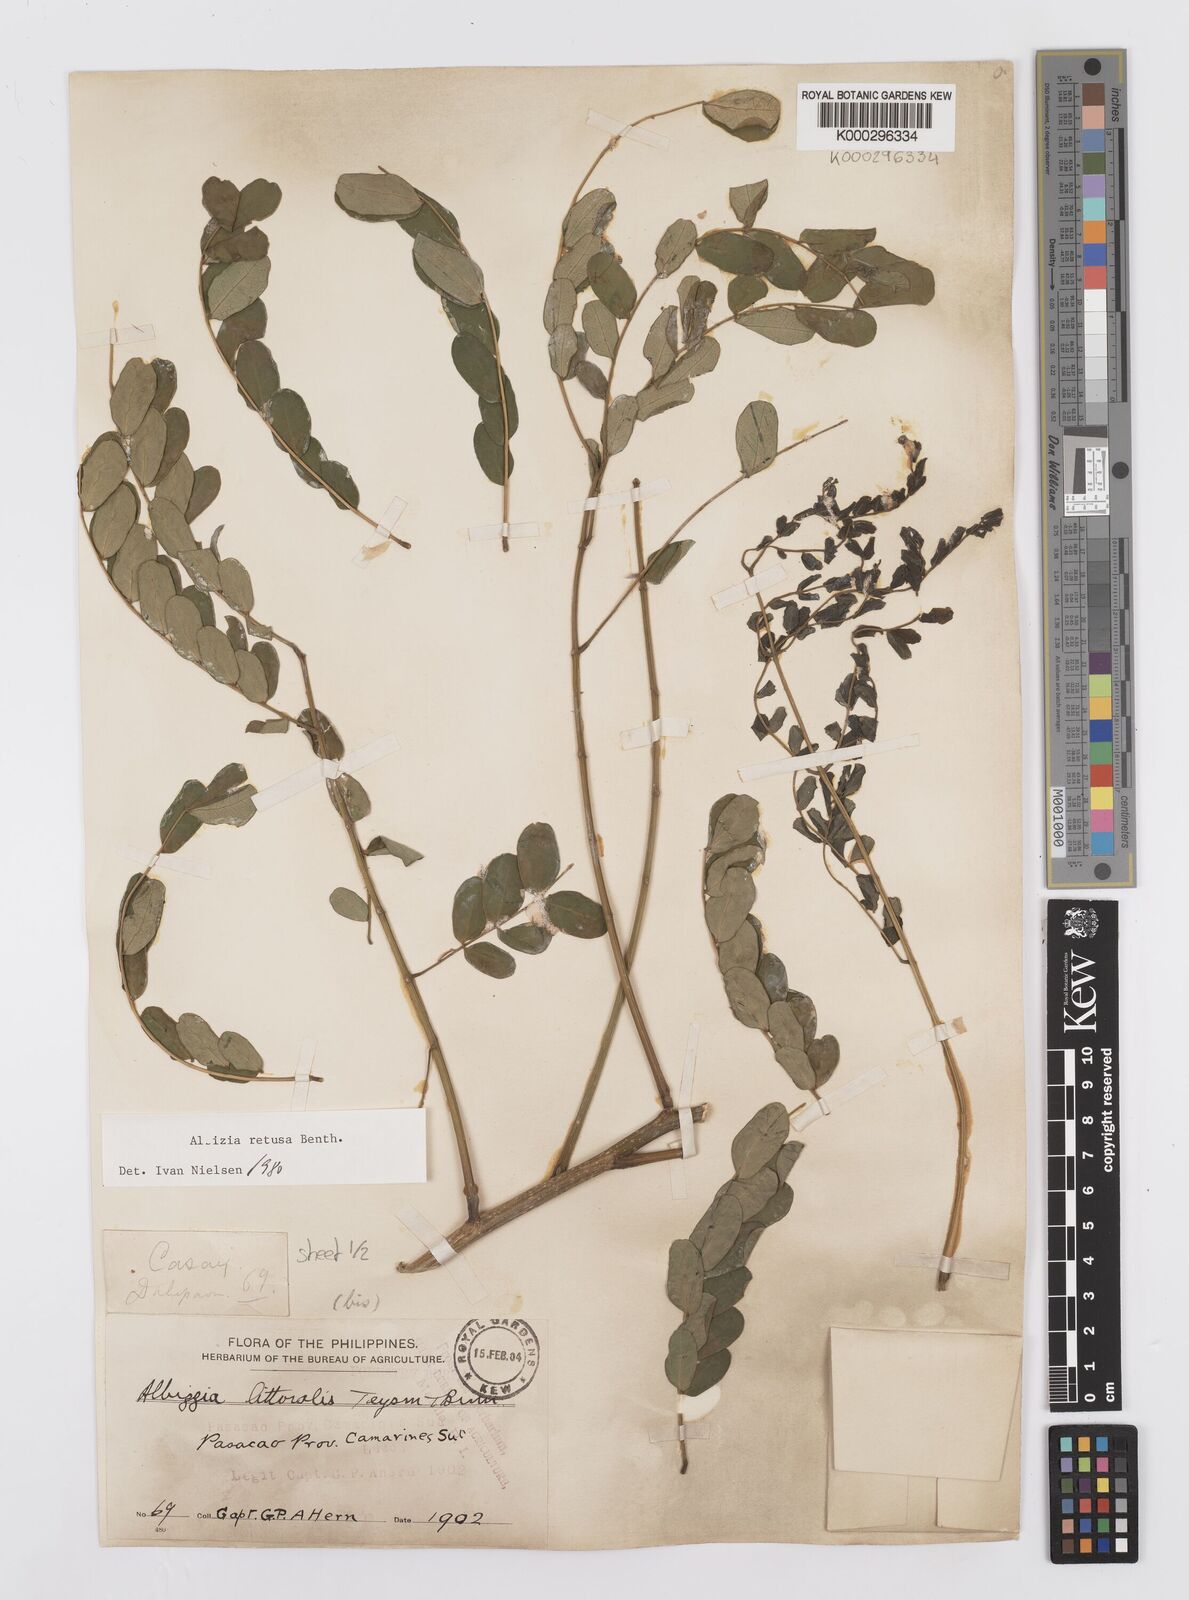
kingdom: Plantae
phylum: Tracheophyta
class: Magnoliopsida
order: Fabales
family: Fabaceae
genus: Albizia
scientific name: Albizia retusa
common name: Sea albizia
